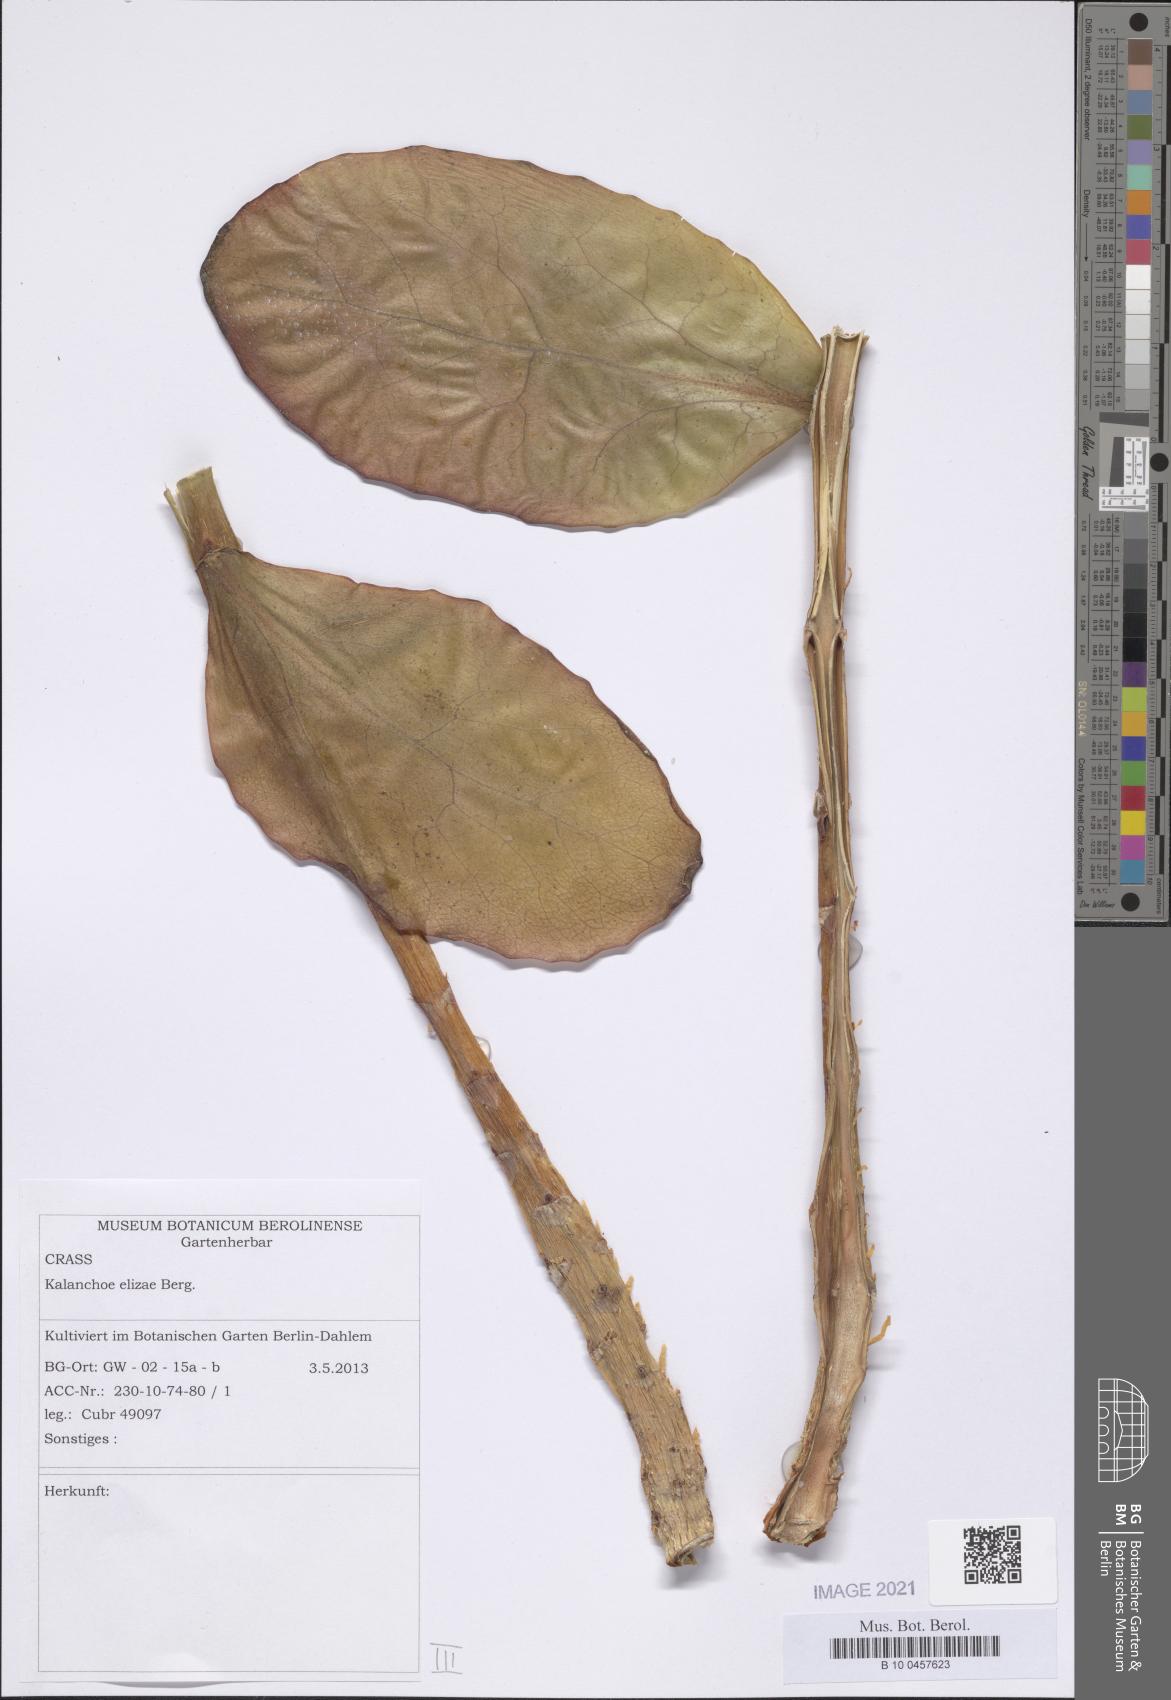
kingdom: Plantae
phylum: Tracheophyta
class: Magnoliopsida
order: Saxifragales
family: Crassulaceae
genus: Kalanchoe
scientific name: Kalanchoe elizae
